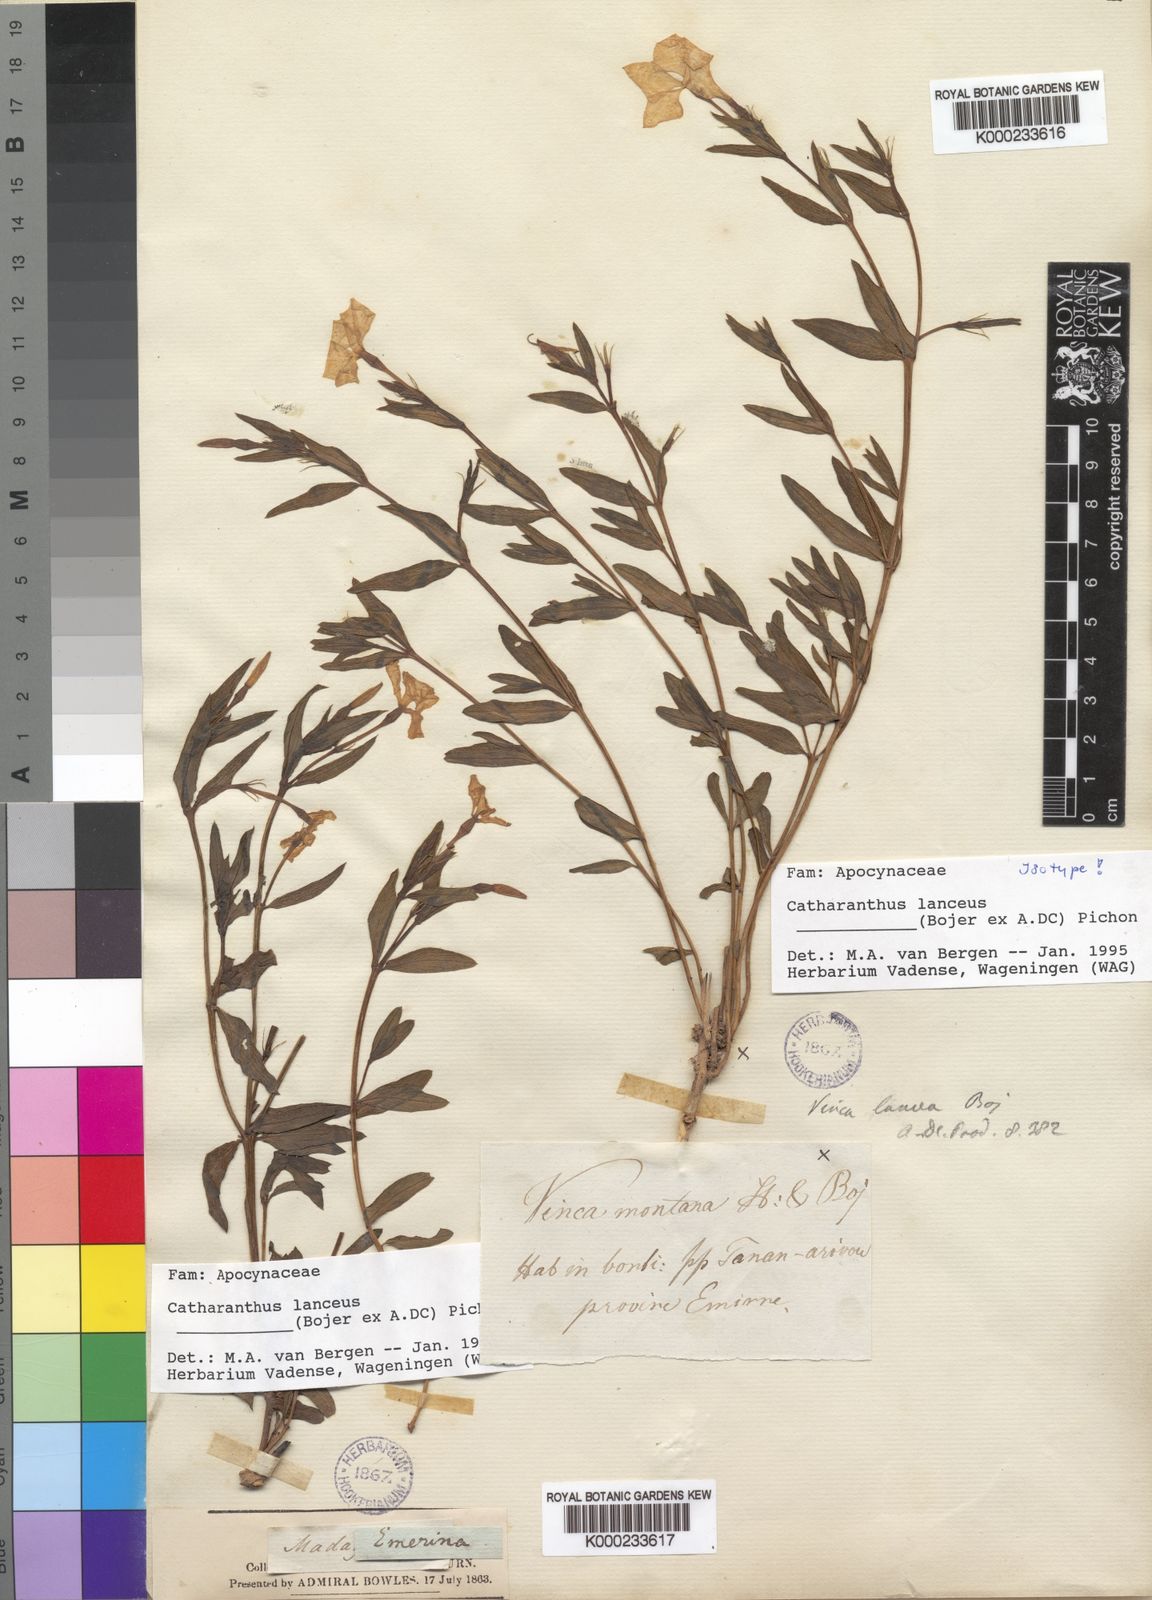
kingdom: Plantae
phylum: Tracheophyta
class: Magnoliopsida
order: Gentianales
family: Apocynaceae
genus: Catharanthus
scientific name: Catharanthus lanceus
